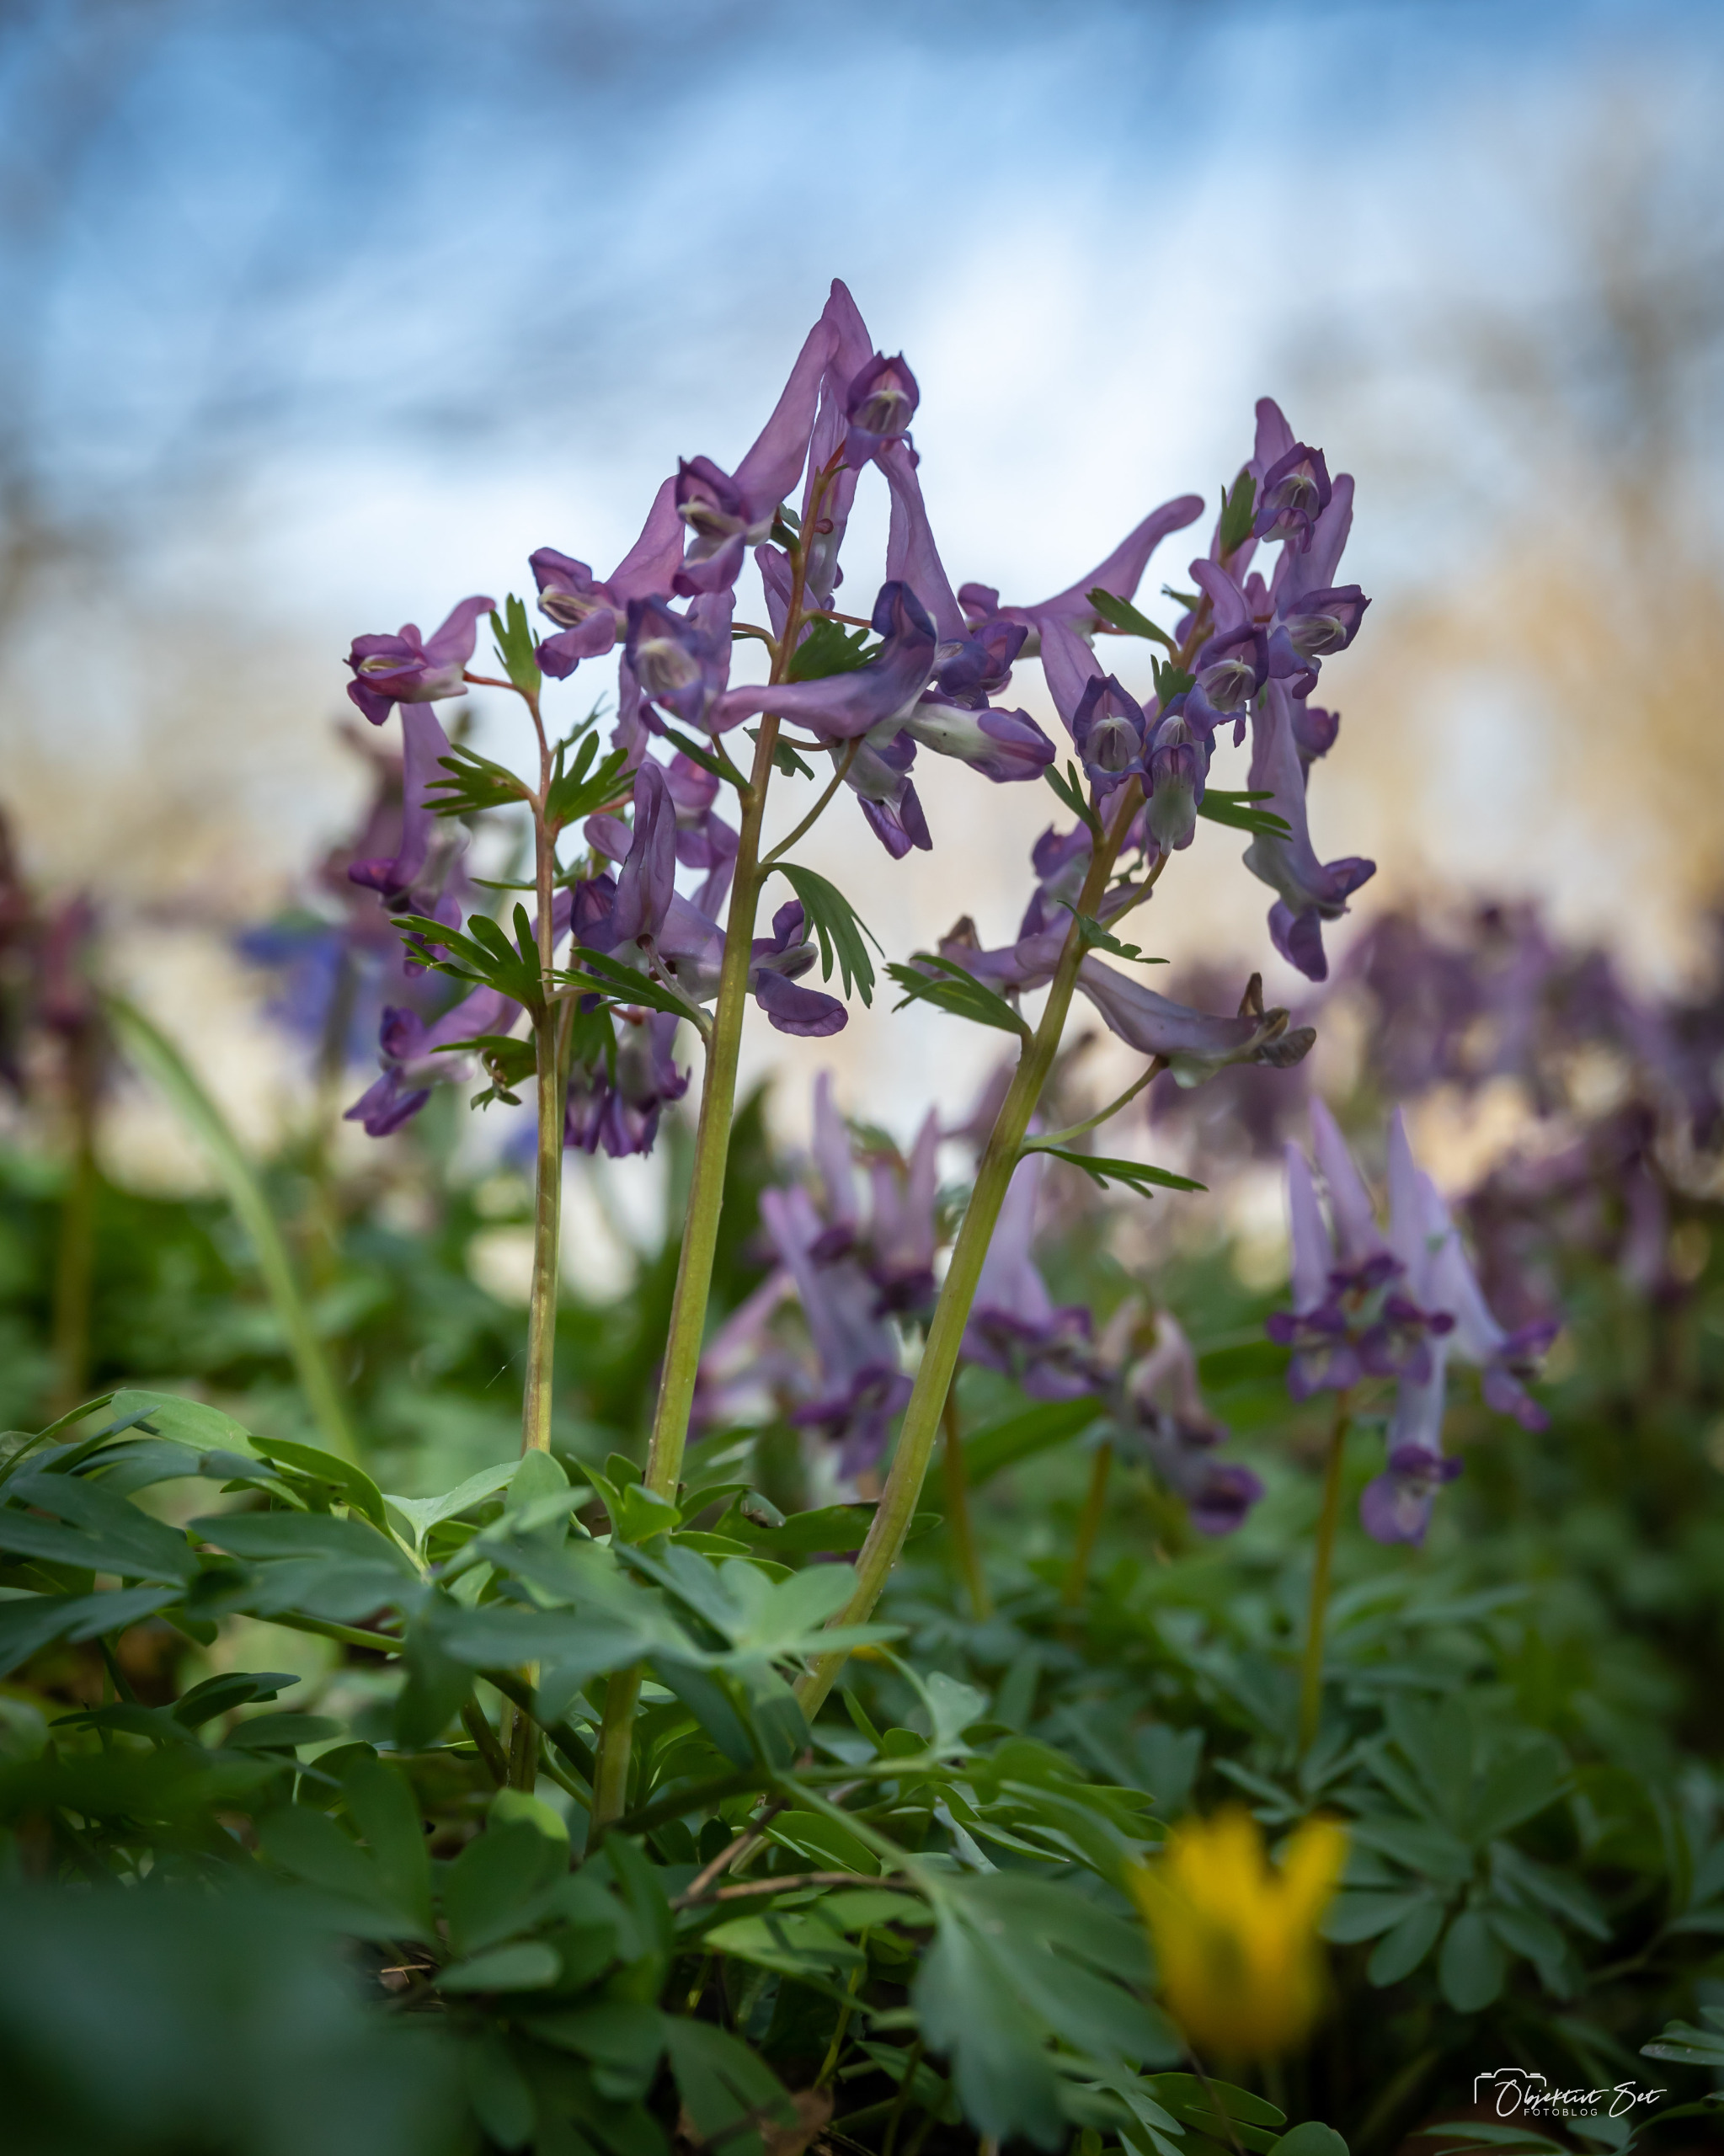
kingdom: Plantae
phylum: Tracheophyta
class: Magnoliopsida
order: Ranunculales
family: Papaveraceae
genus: Corydalis
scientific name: Corydalis solida
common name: Langstilket lærkespore
